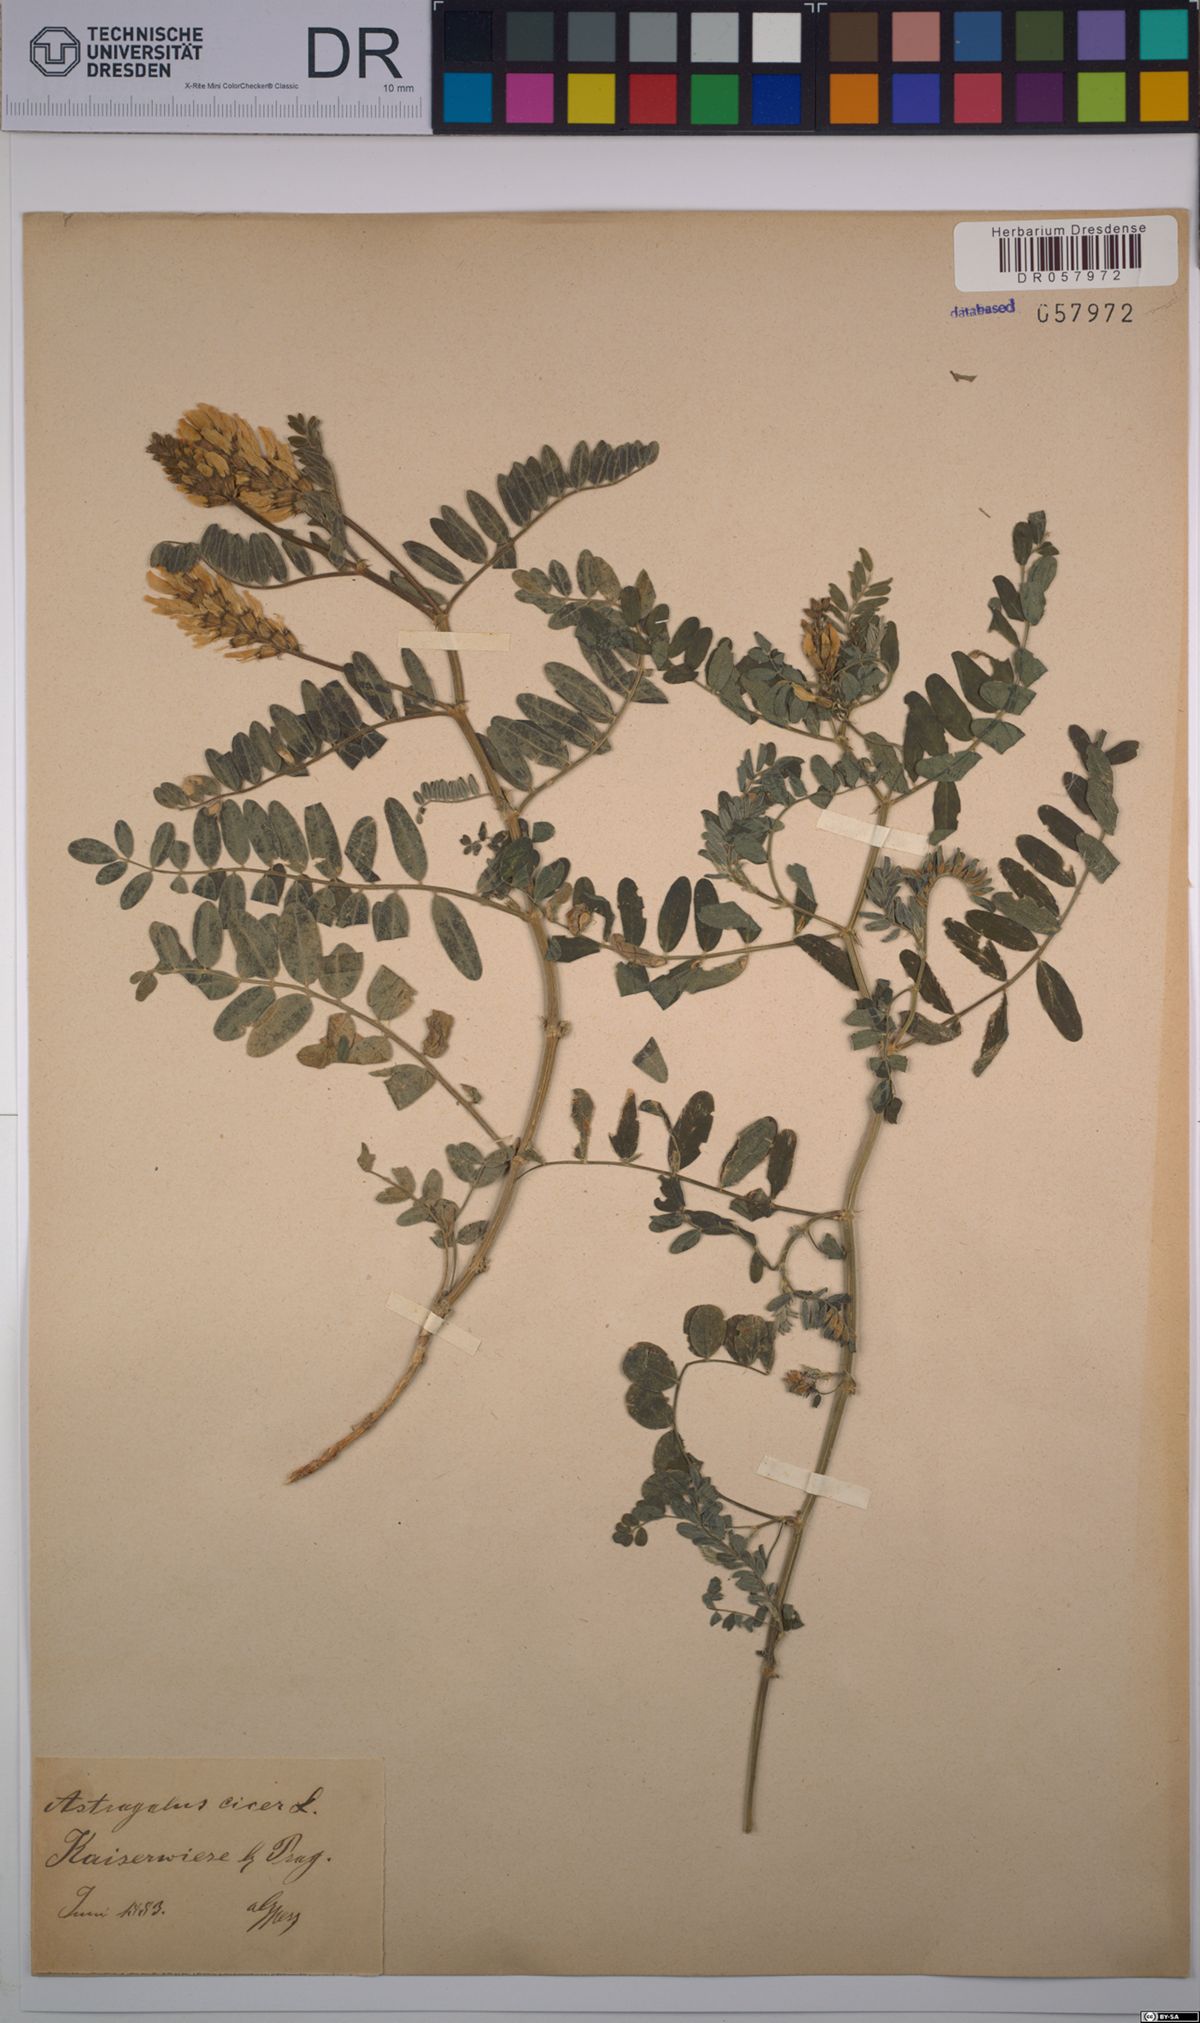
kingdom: Plantae
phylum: Tracheophyta
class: Magnoliopsida
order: Fabales
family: Fabaceae
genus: Astragalus
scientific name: Astragalus cicer
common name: Chick-pea milk-vetch
